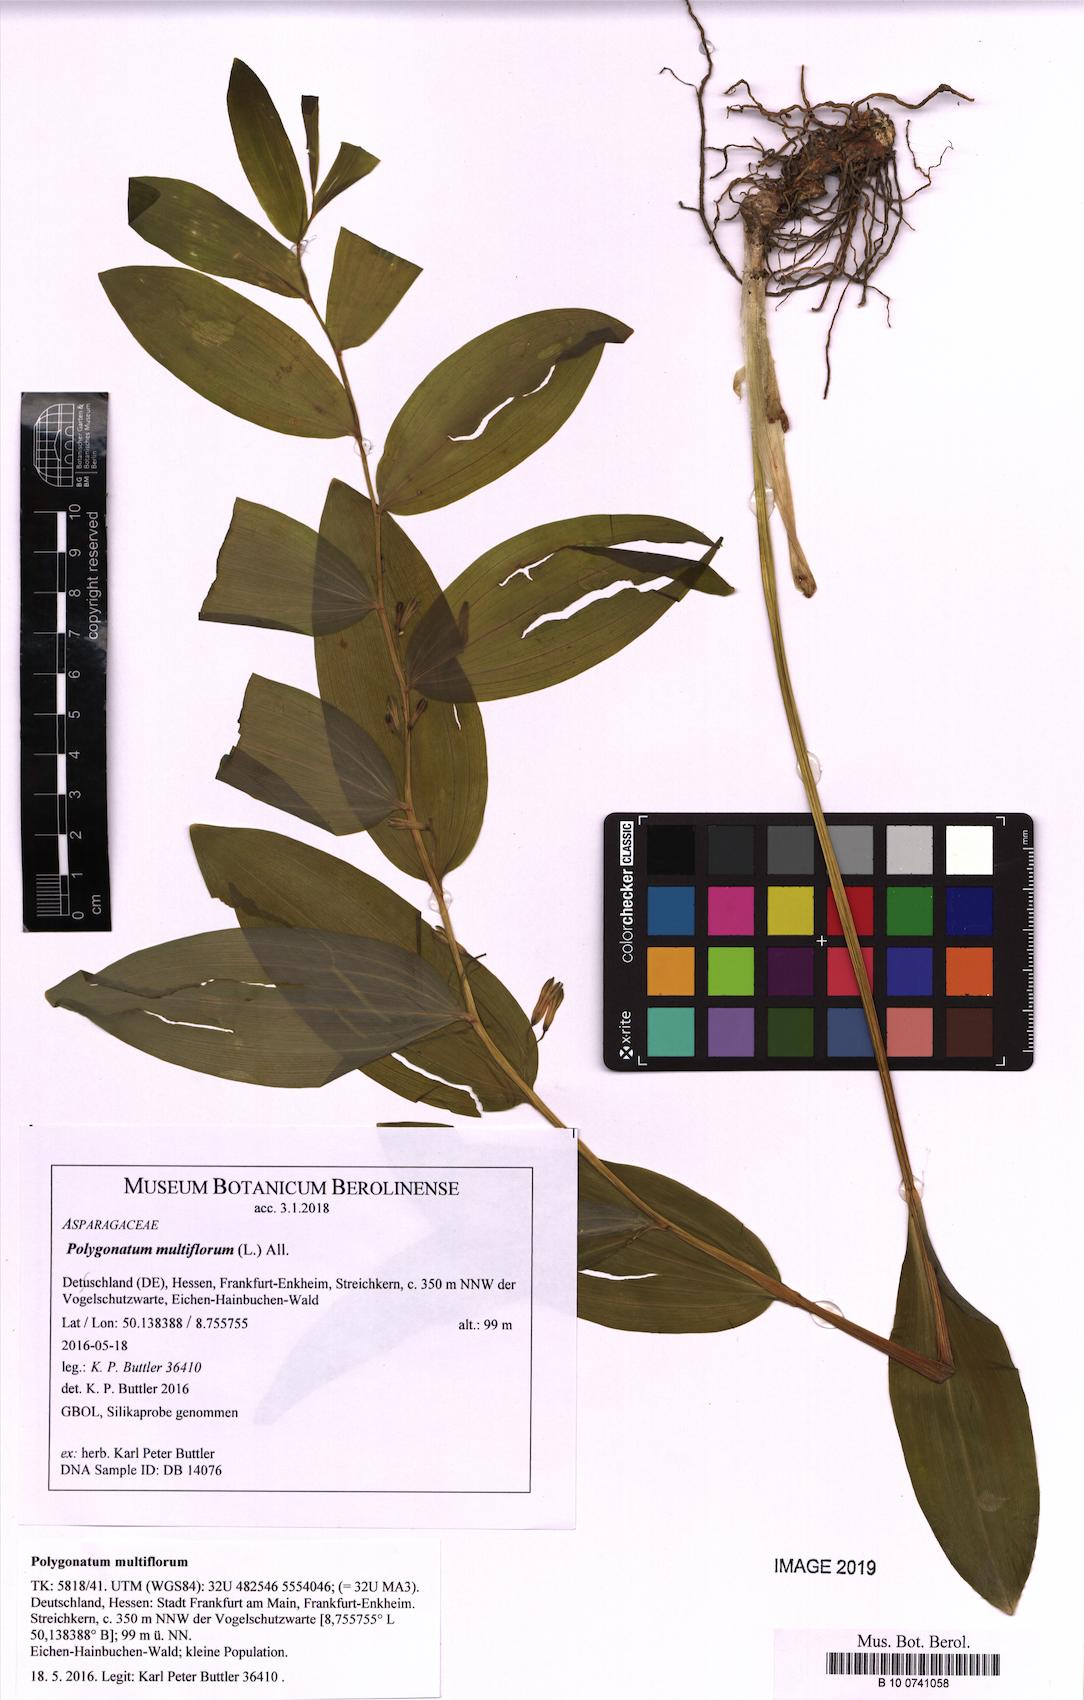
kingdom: Plantae
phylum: Tracheophyta
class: Liliopsida
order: Asparagales
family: Asparagaceae
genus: Polygonatum
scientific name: Polygonatum multiflorum
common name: Solomon's-seal
